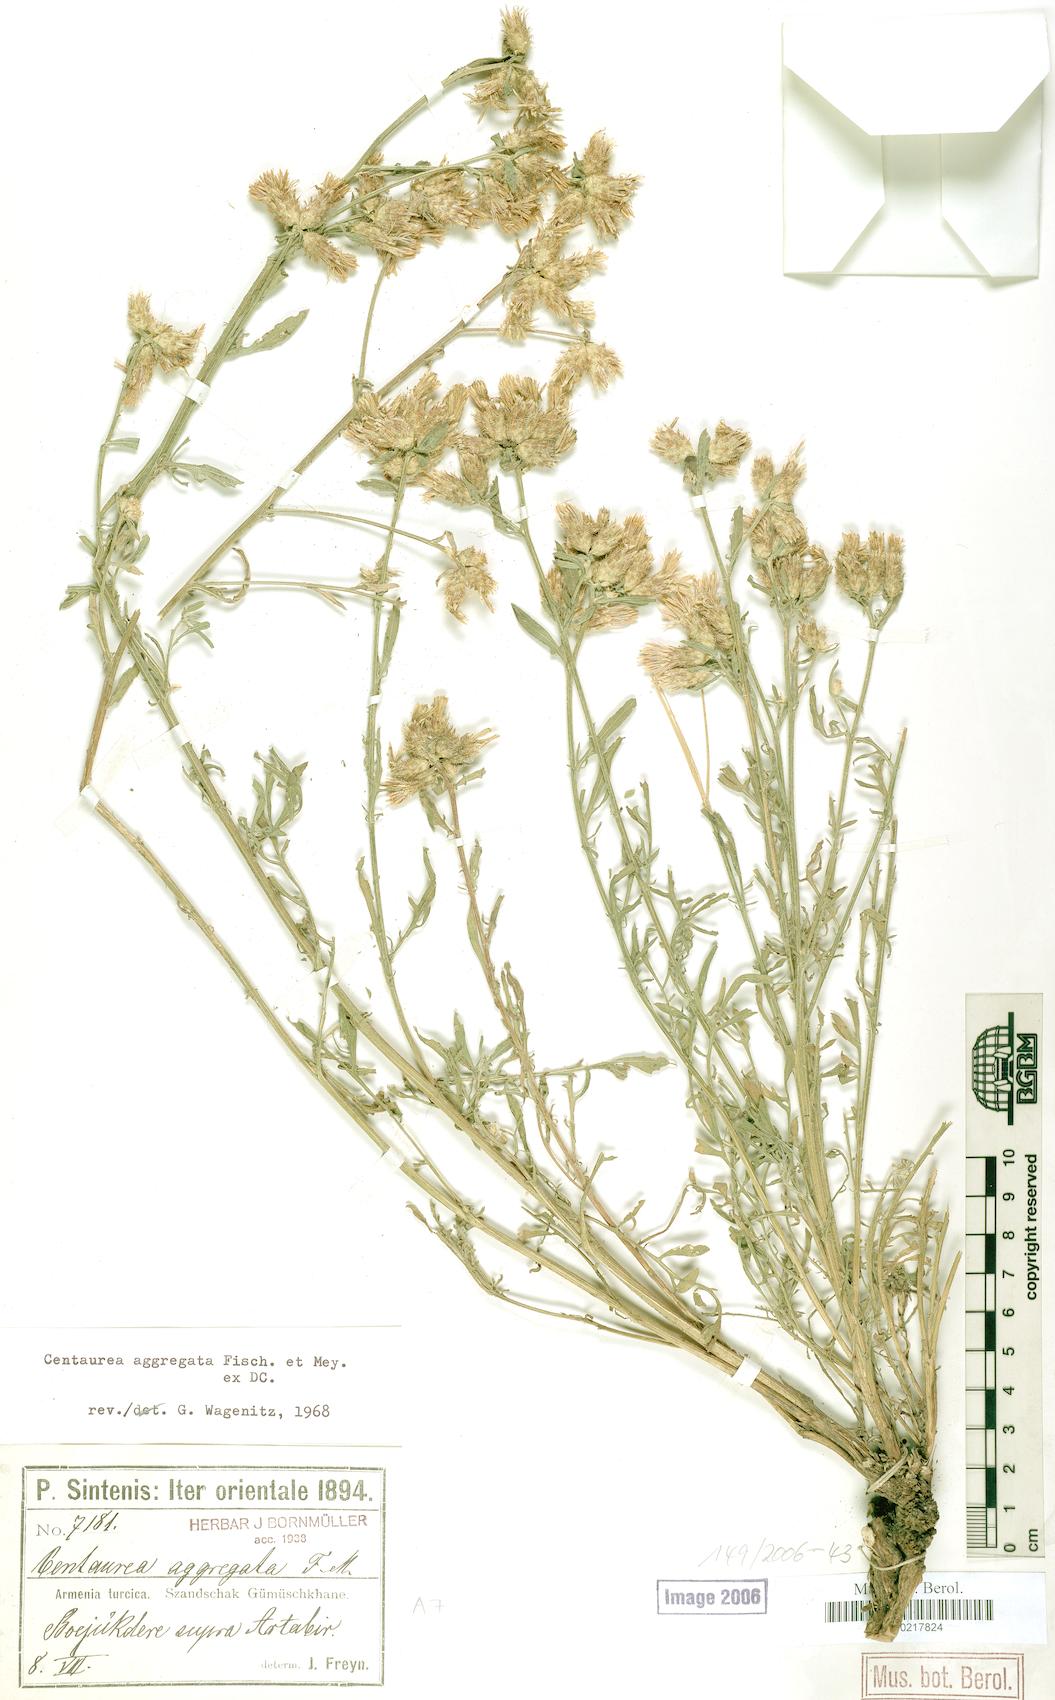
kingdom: Plantae
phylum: Tracheophyta
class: Magnoliopsida
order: Asterales
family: Asteraceae
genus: Centaurea
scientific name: Centaurea aggregata
